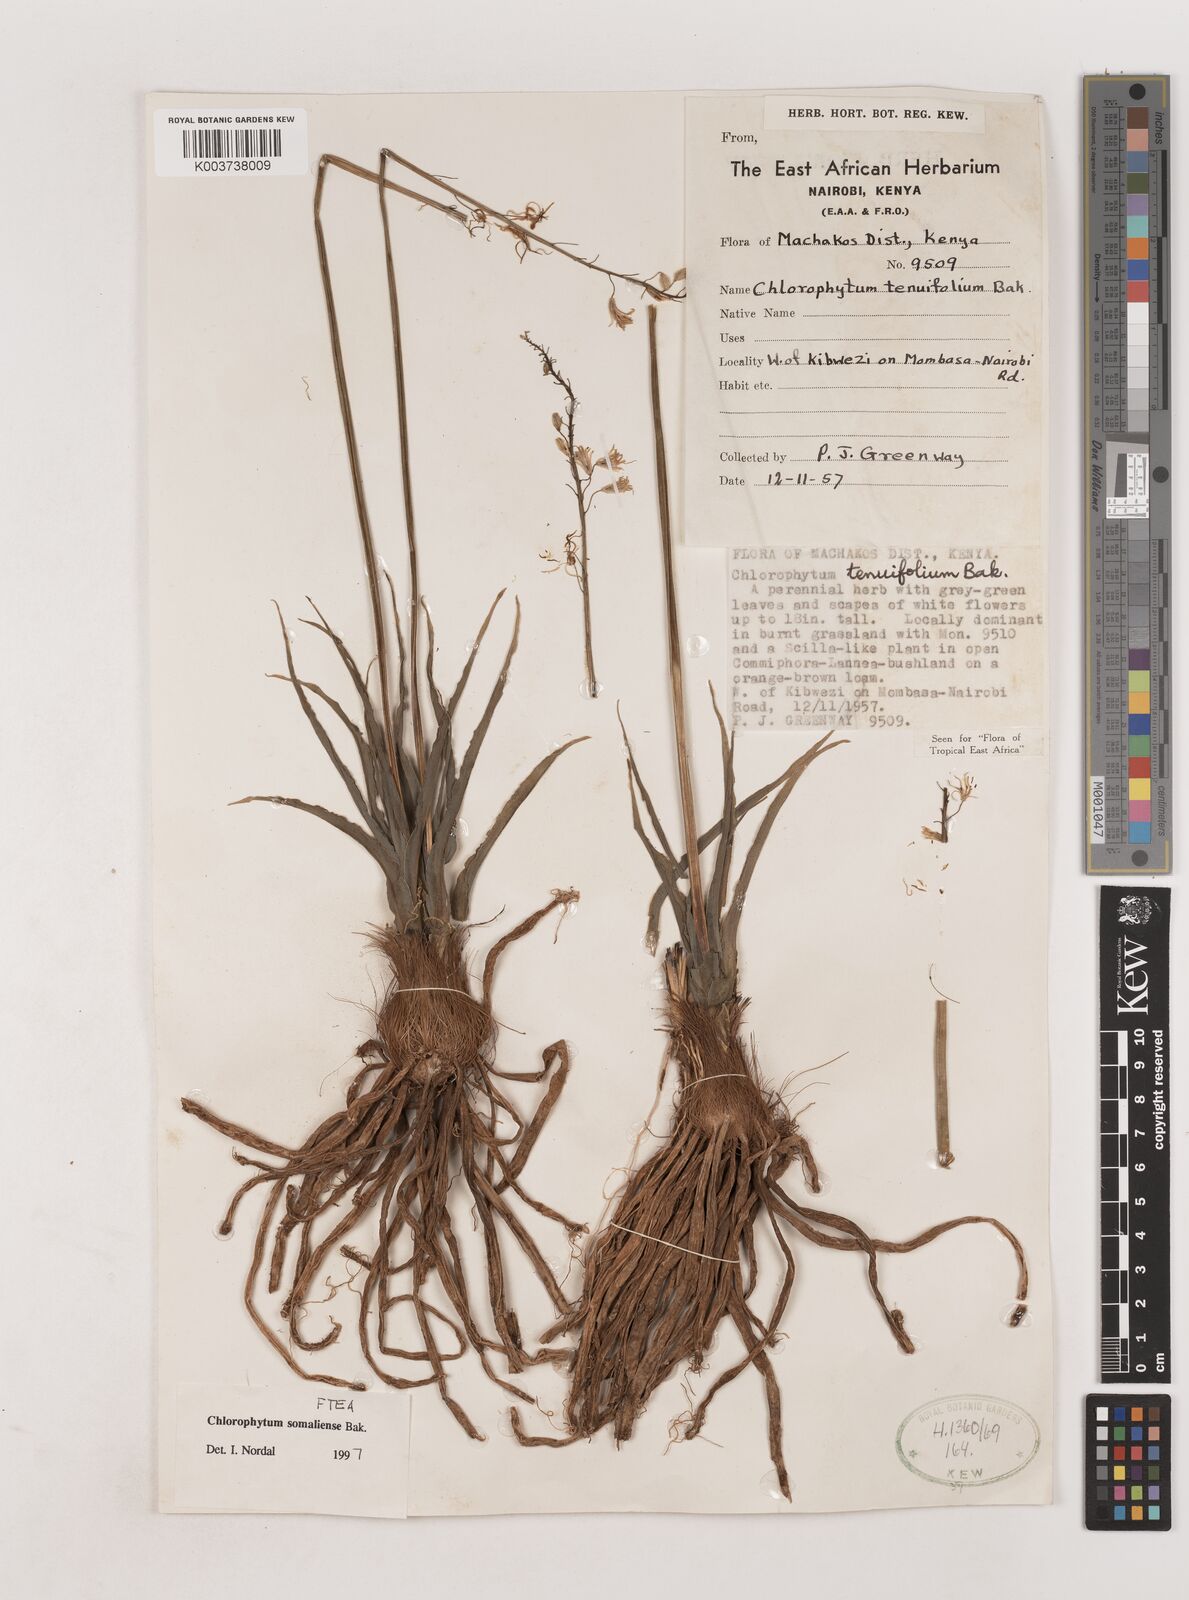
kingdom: Plantae
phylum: Tracheophyta
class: Liliopsida
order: Asparagales
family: Asparagaceae
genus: Chlorophytum
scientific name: Chlorophytum somaliense
